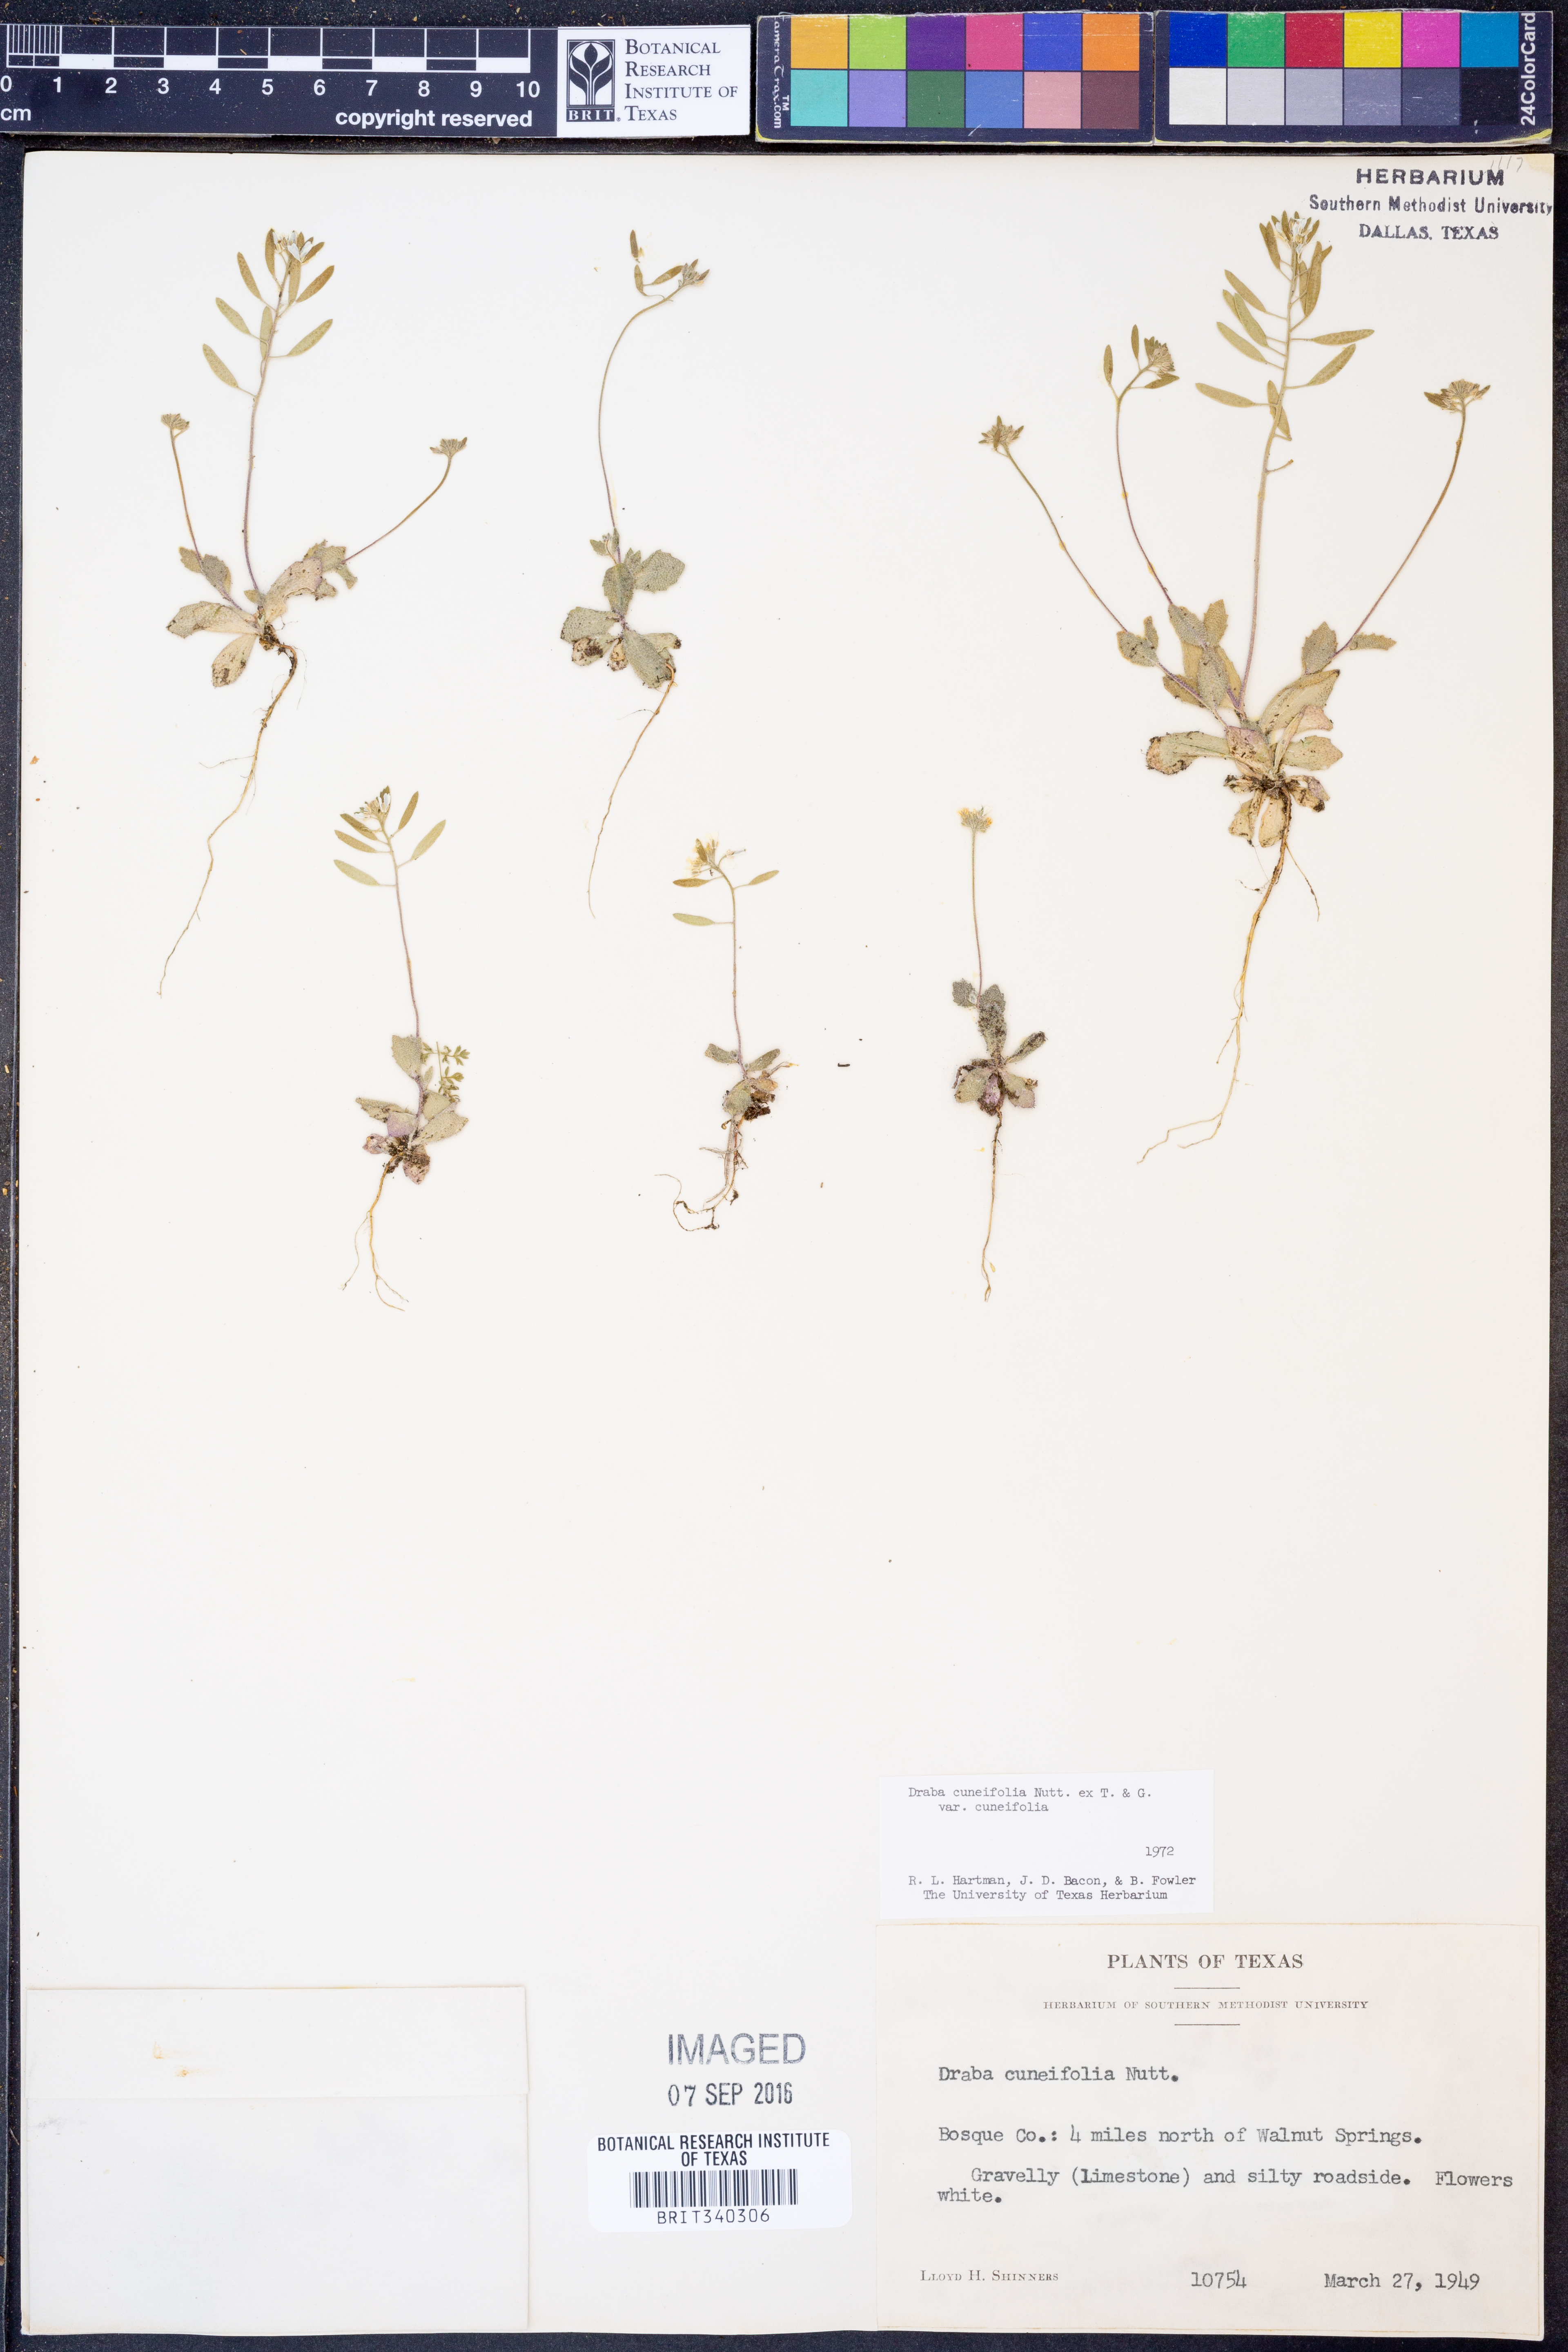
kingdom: Plantae
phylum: Tracheophyta
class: Magnoliopsida
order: Brassicales
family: Brassicaceae
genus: Tomostima
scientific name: Tomostima cuneifolia
